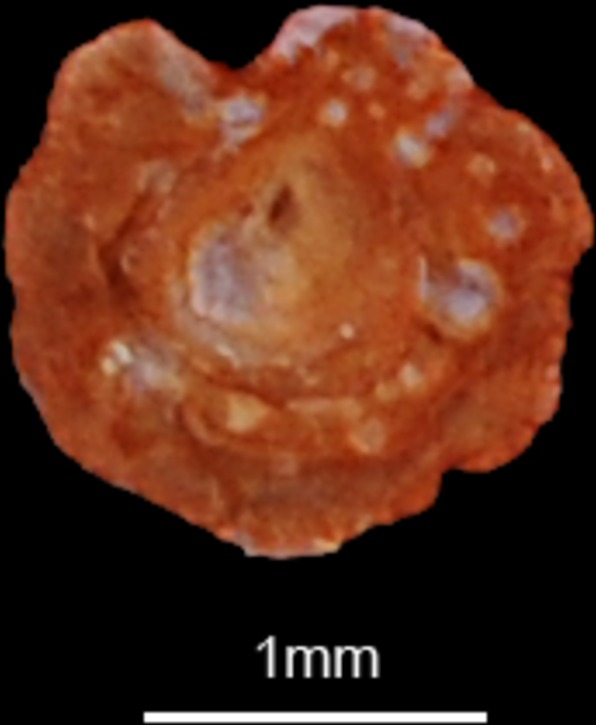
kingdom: Animalia
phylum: Chordata
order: Cypriniformes
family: Cyprinidae
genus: Gobio
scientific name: Gobio gobio
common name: Gudgeon
